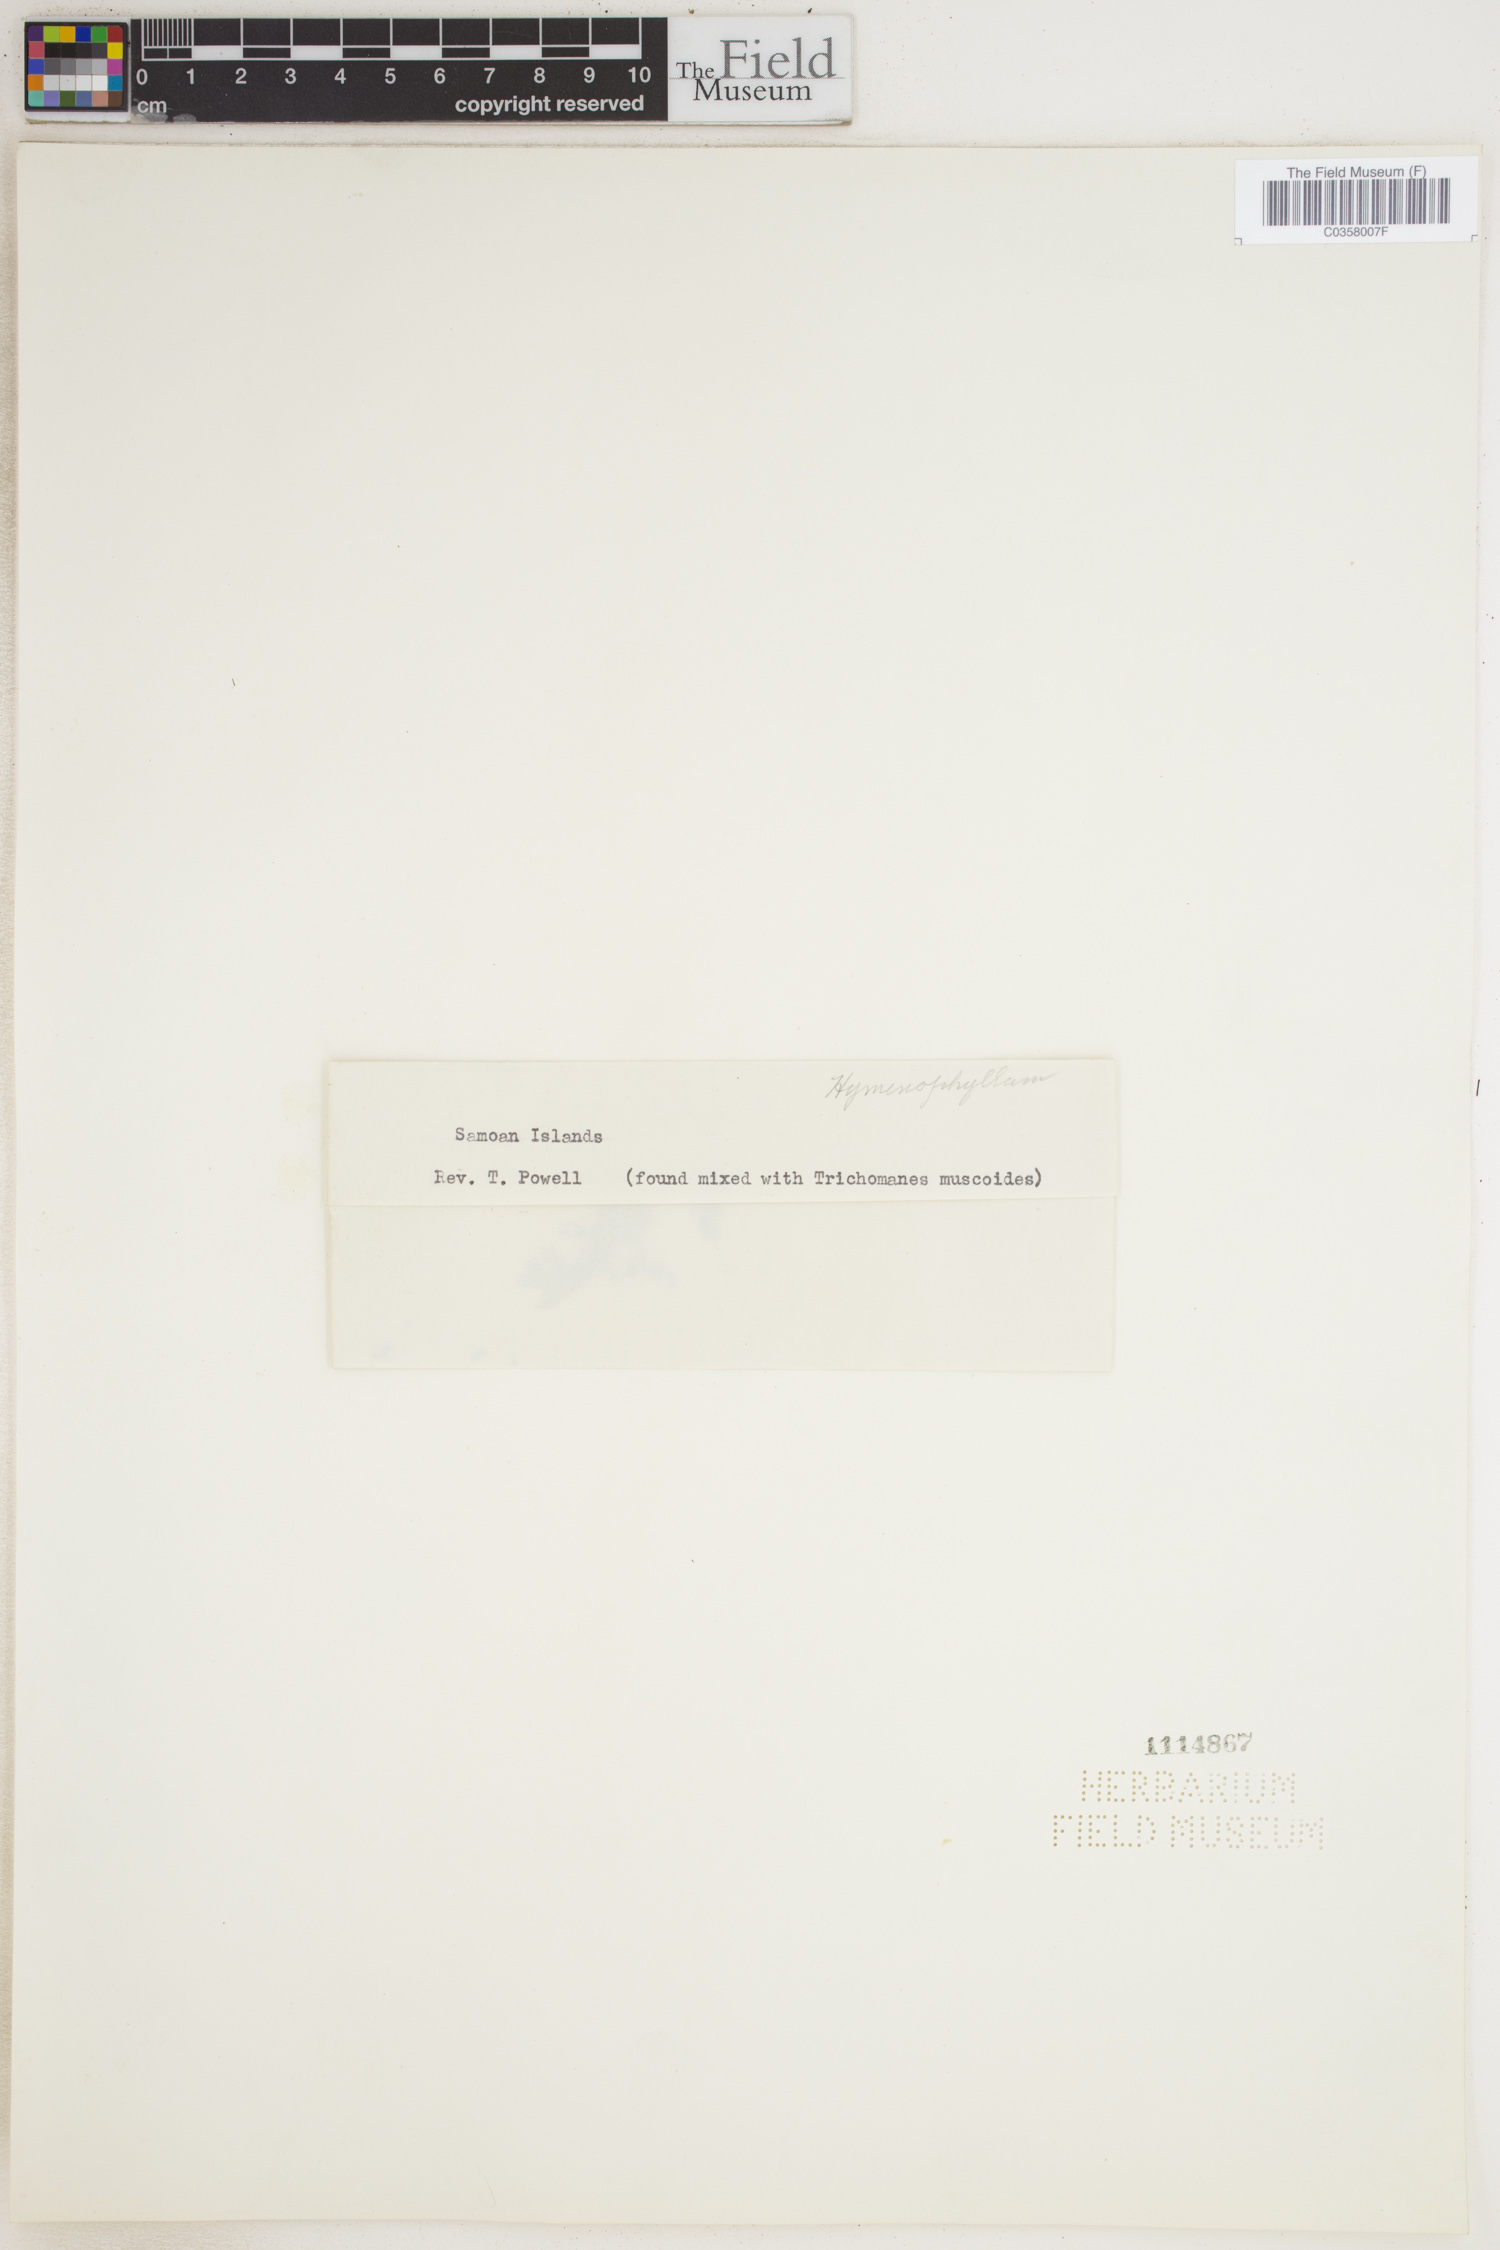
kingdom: Plantae
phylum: Tracheophyta
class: Polypodiopsida
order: Hymenophyllales
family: Hymenophyllaceae
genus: Hymenophyllum
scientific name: Hymenophyllum
